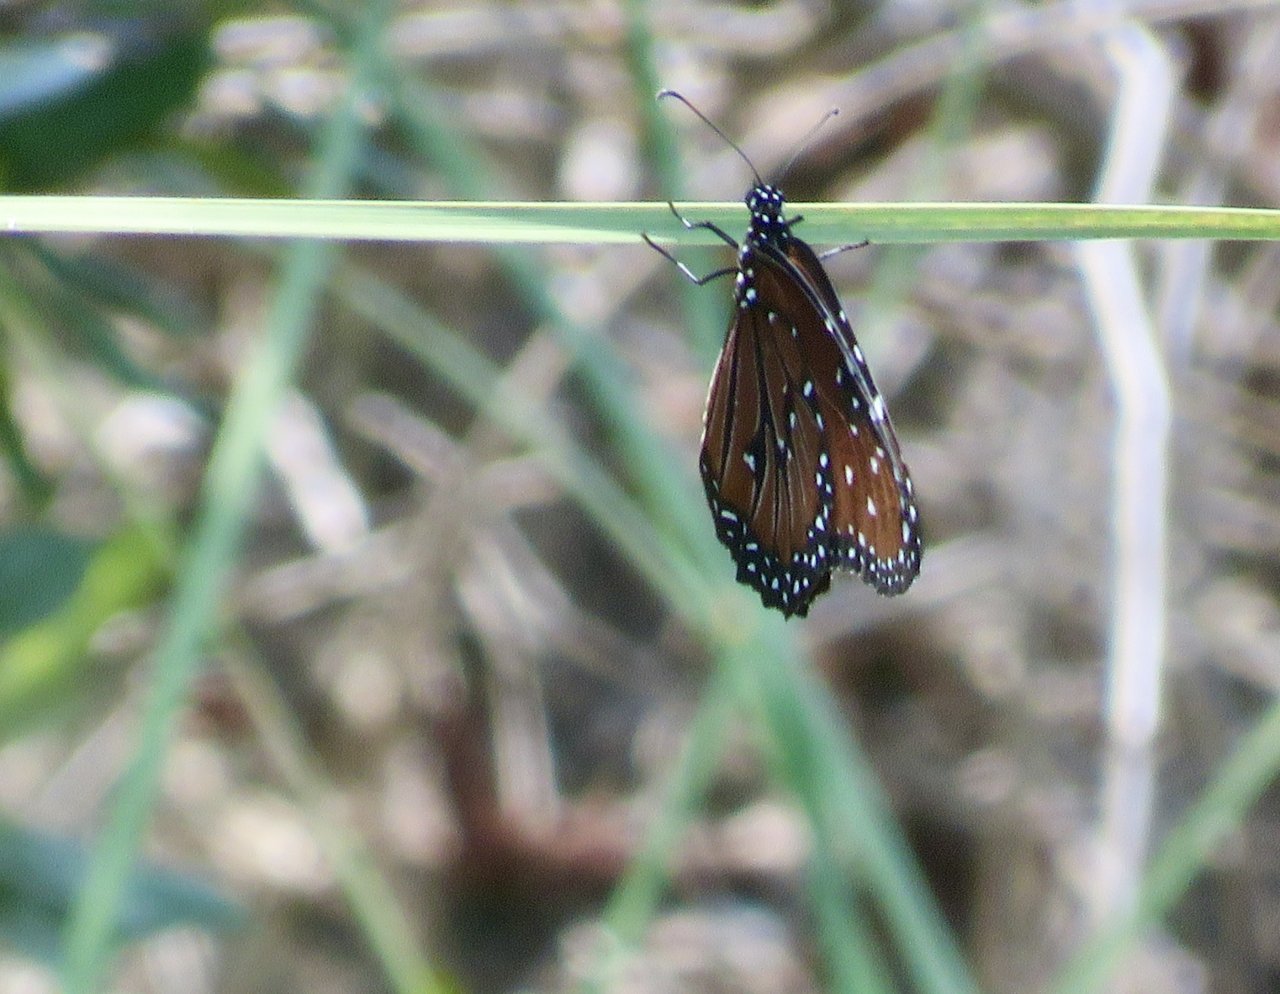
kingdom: Animalia
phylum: Arthropoda
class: Insecta
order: Lepidoptera
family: Nymphalidae
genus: Danaus
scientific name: Danaus gilippus
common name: Queen
